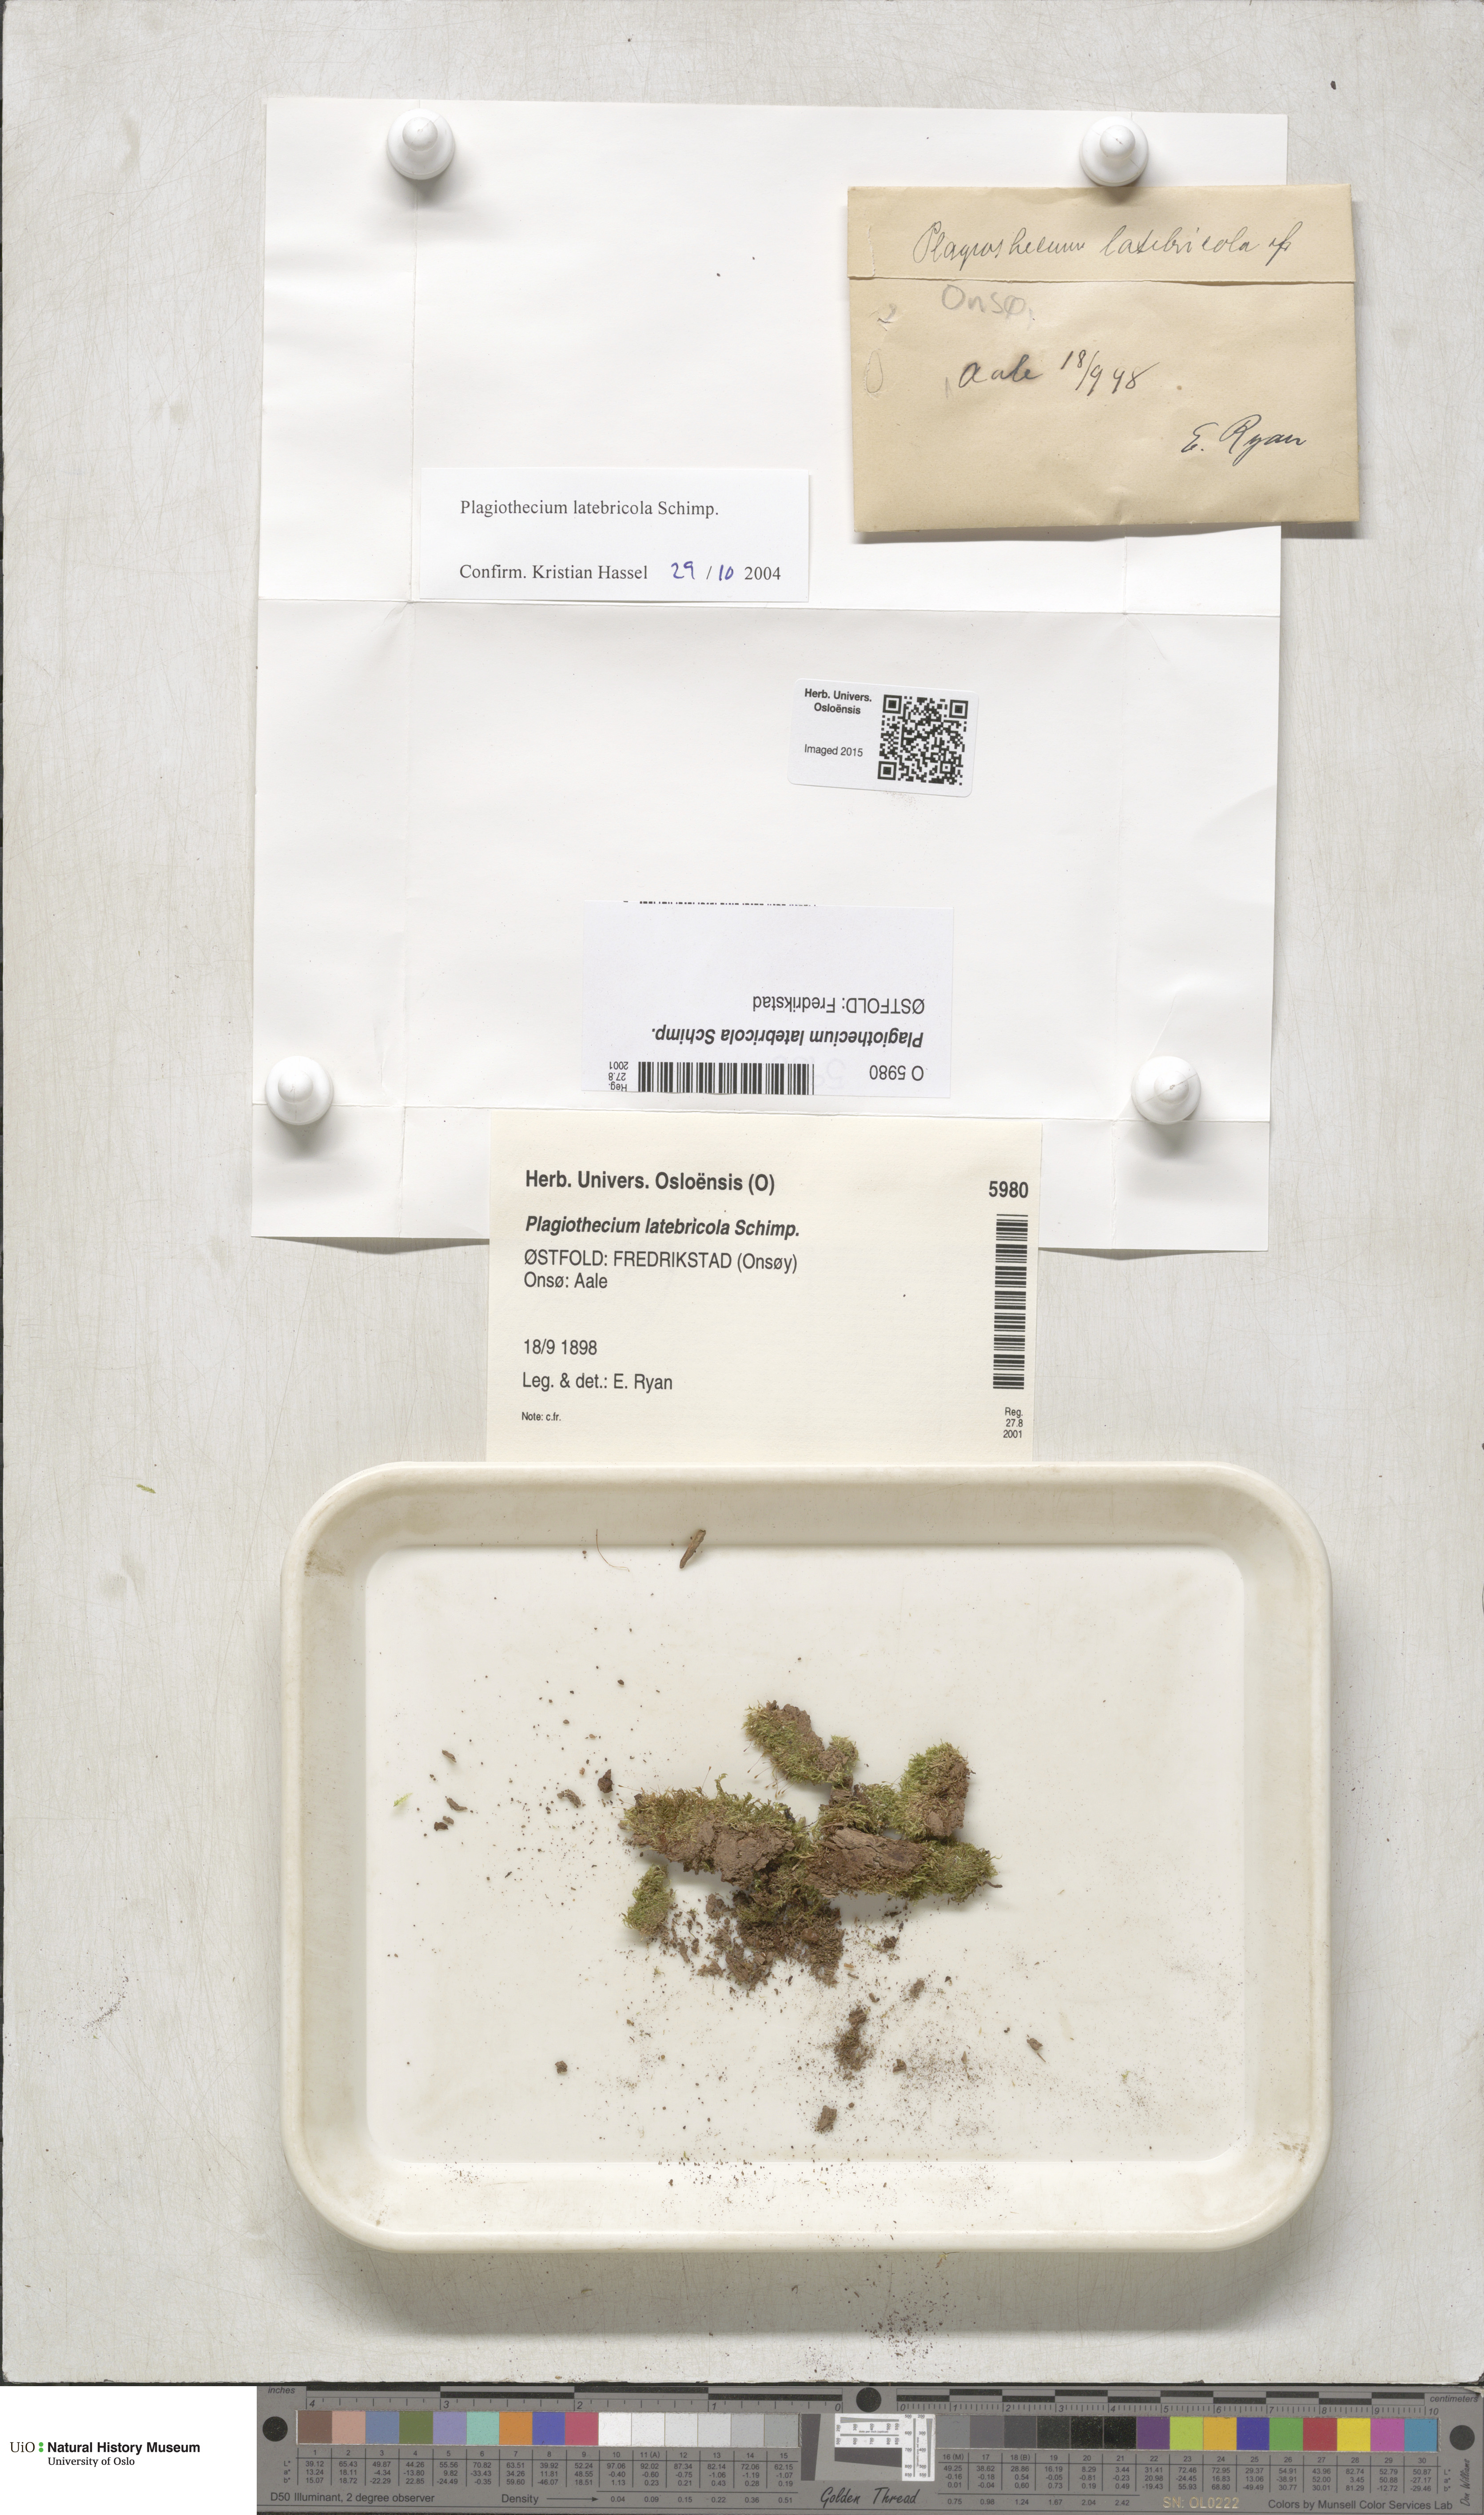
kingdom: Plantae
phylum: Bryophyta
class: Bryopsida
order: Hypnales
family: Plagiotheciaceae
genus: Plagiothecium
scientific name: Plagiothecium latebricola
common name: Alder silk moss
